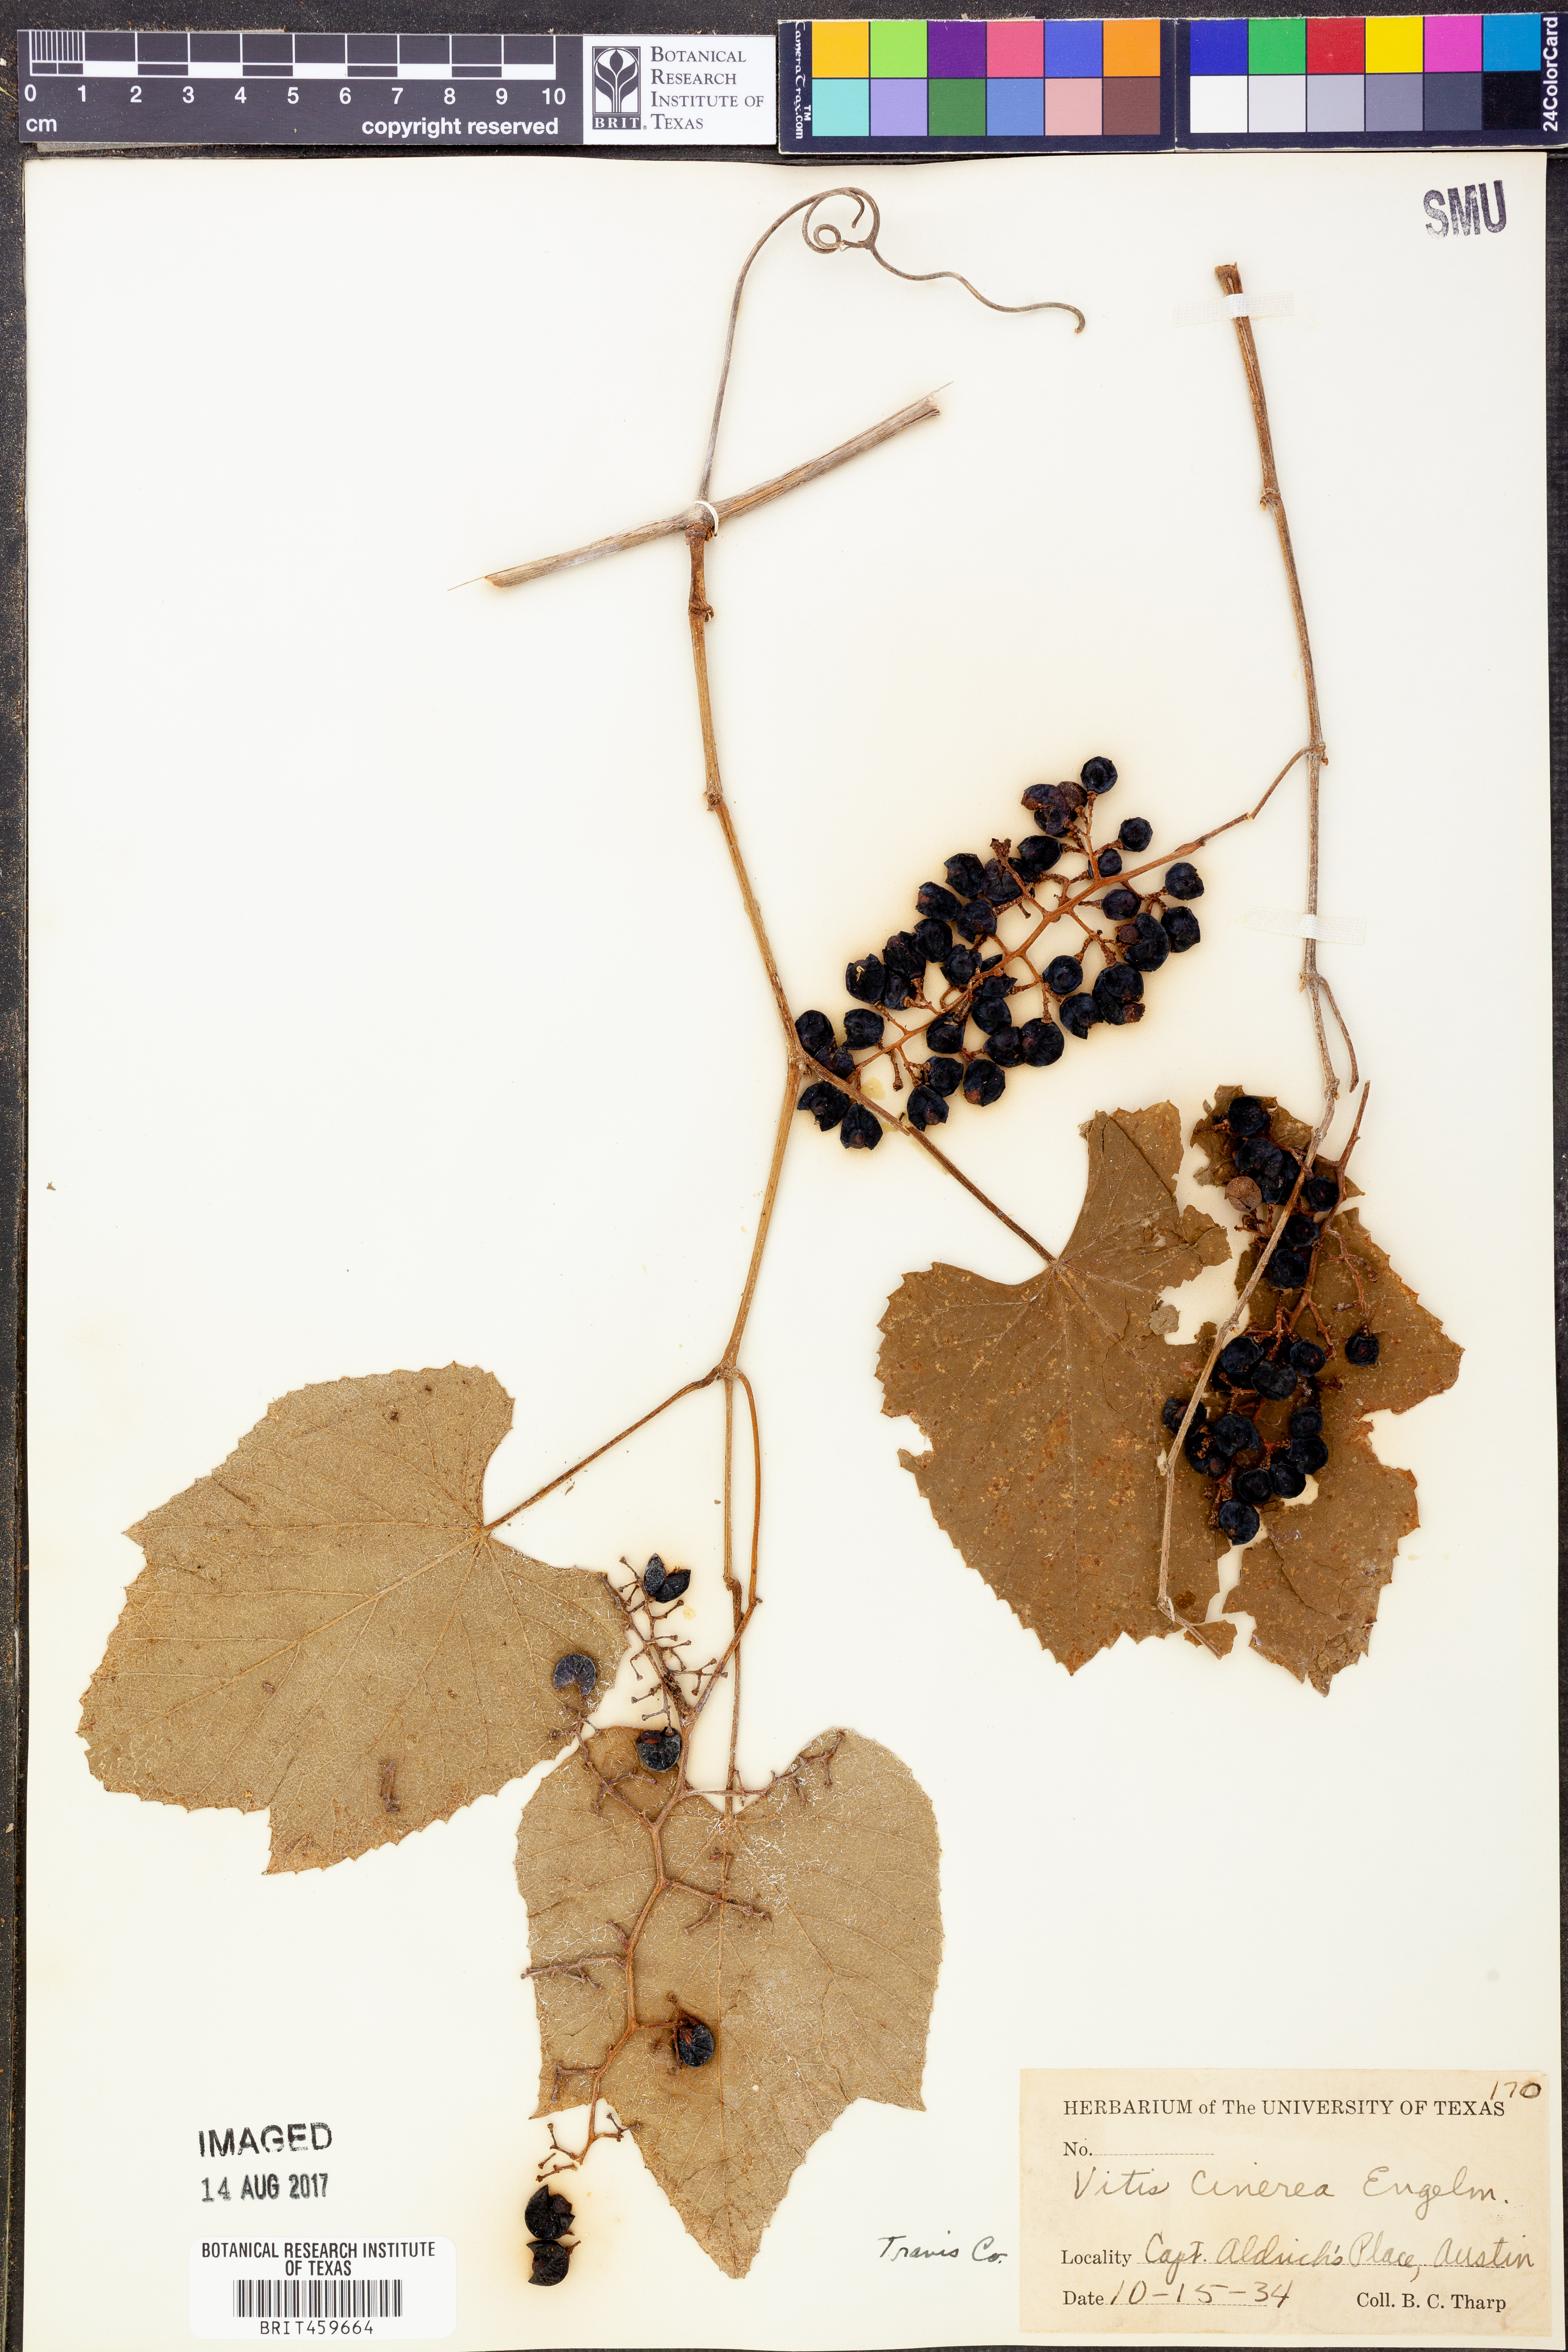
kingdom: Plantae
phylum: Tracheophyta
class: Magnoliopsida
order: Vitales
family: Vitaceae
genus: Vitis
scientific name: Vitis cinerea
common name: Ashy grape
